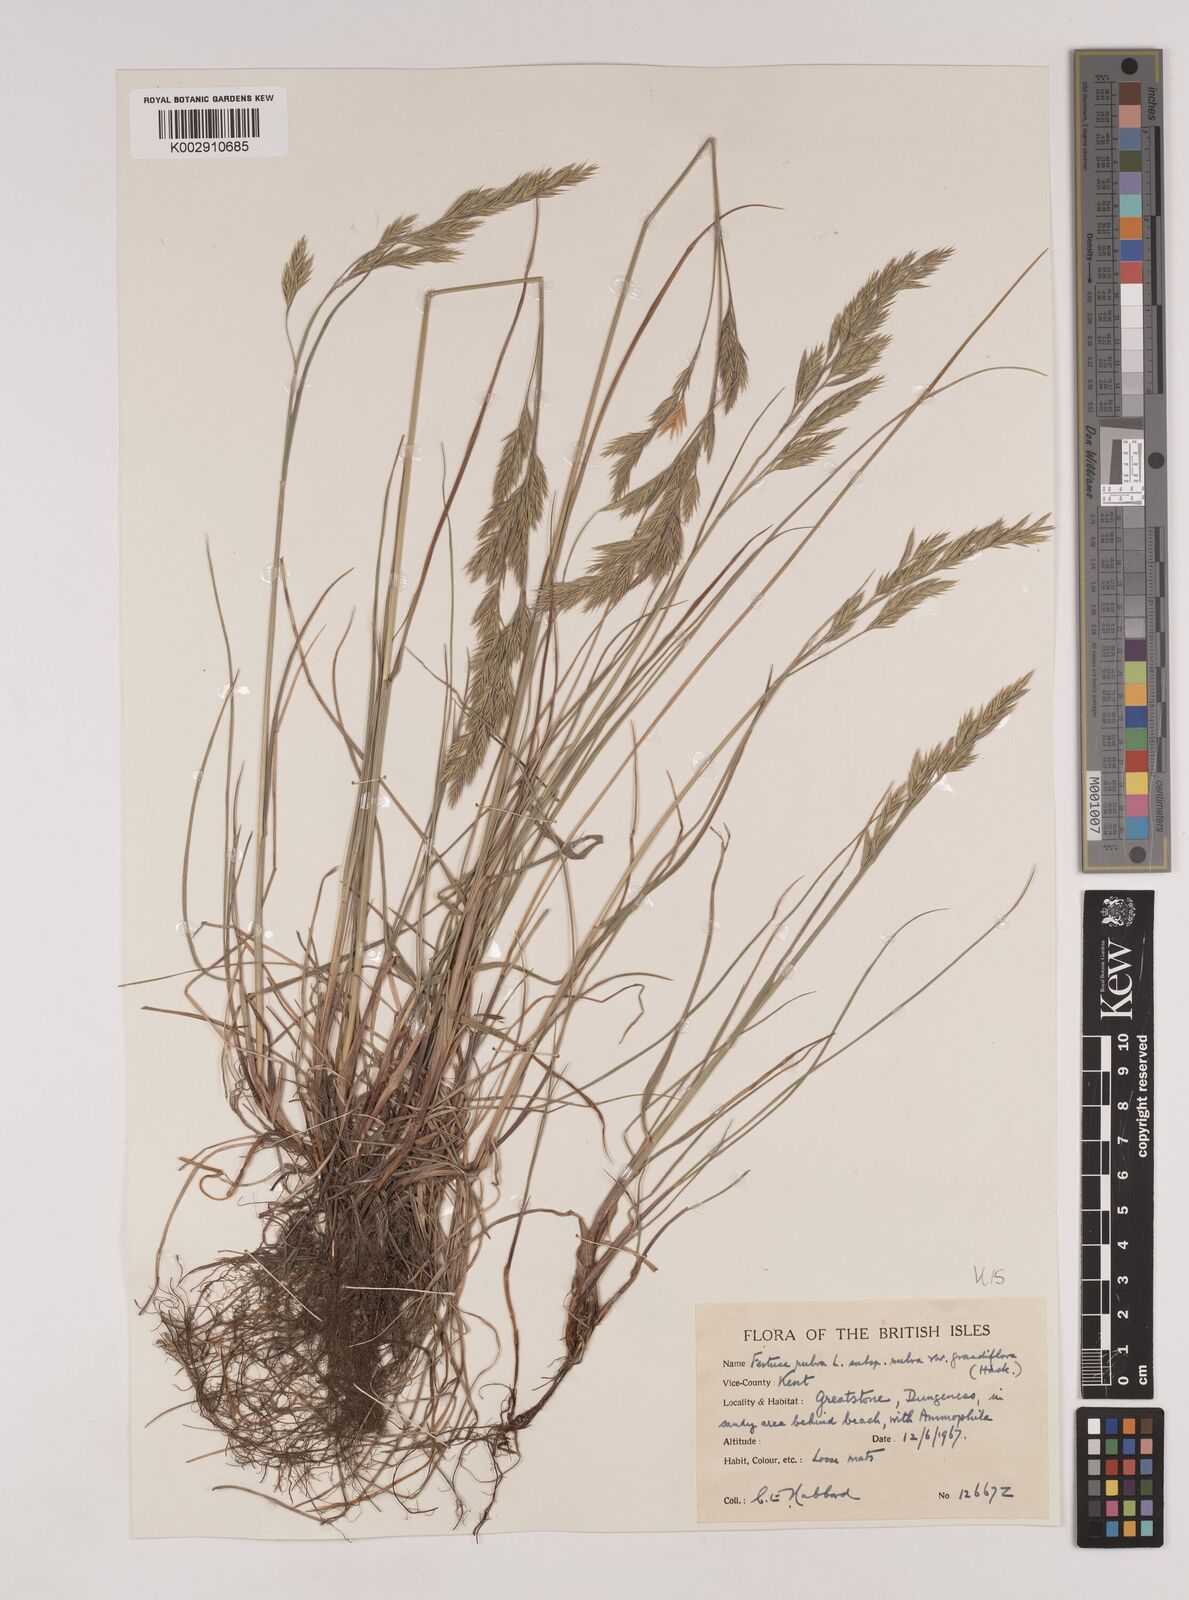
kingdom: Plantae
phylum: Tracheophyta
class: Liliopsida
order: Poales
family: Poaceae
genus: Festuca
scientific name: Festuca rubra
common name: Red fescue
